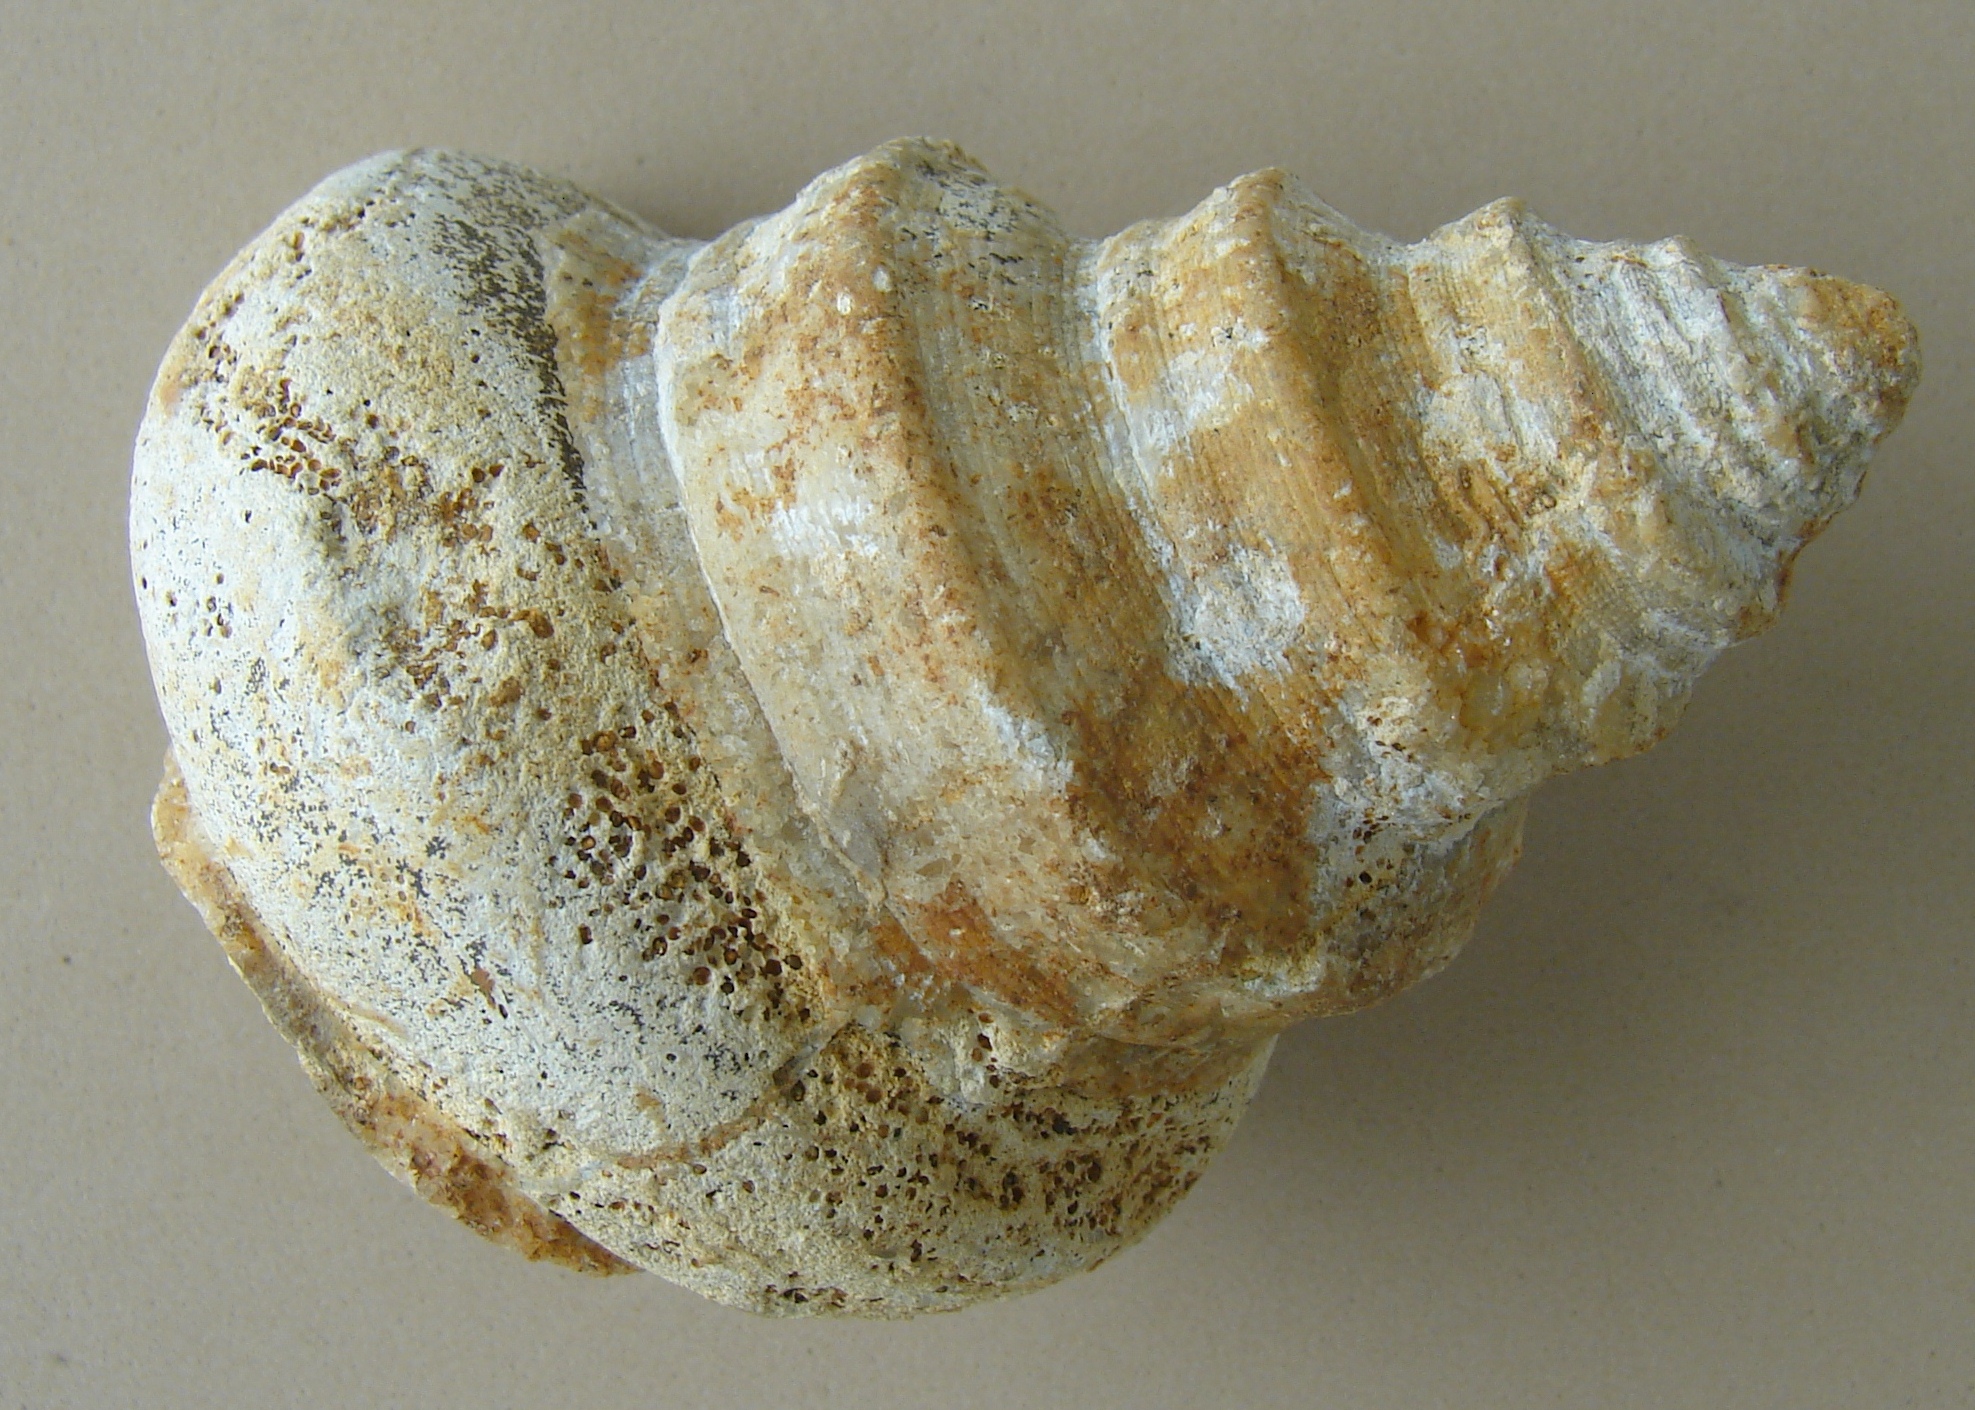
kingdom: Animalia
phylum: Mollusca
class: Gastropoda
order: Pleurotomariida
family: Pleurotomariidae
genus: Bathrotomaria
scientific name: Bathrotomaria scrobinula
